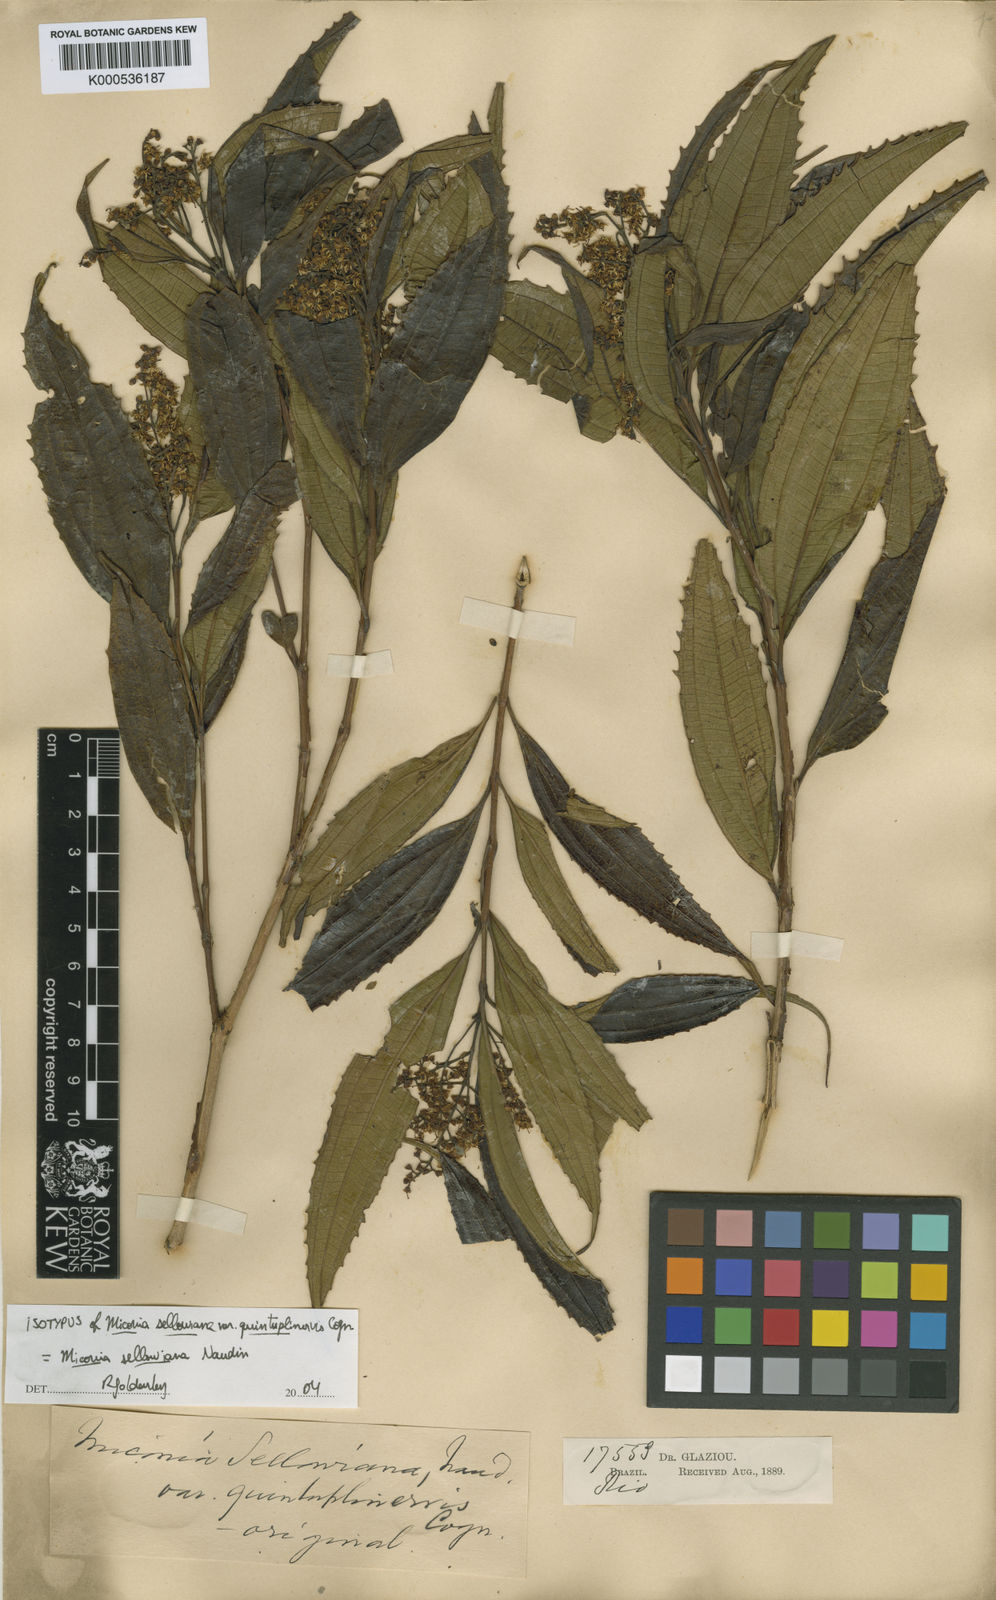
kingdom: Plantae
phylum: Tracheophyta
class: Magnoliopsida
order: Myrtales
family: Melastomataceae
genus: Miconia
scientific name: Miconia sellowiana
